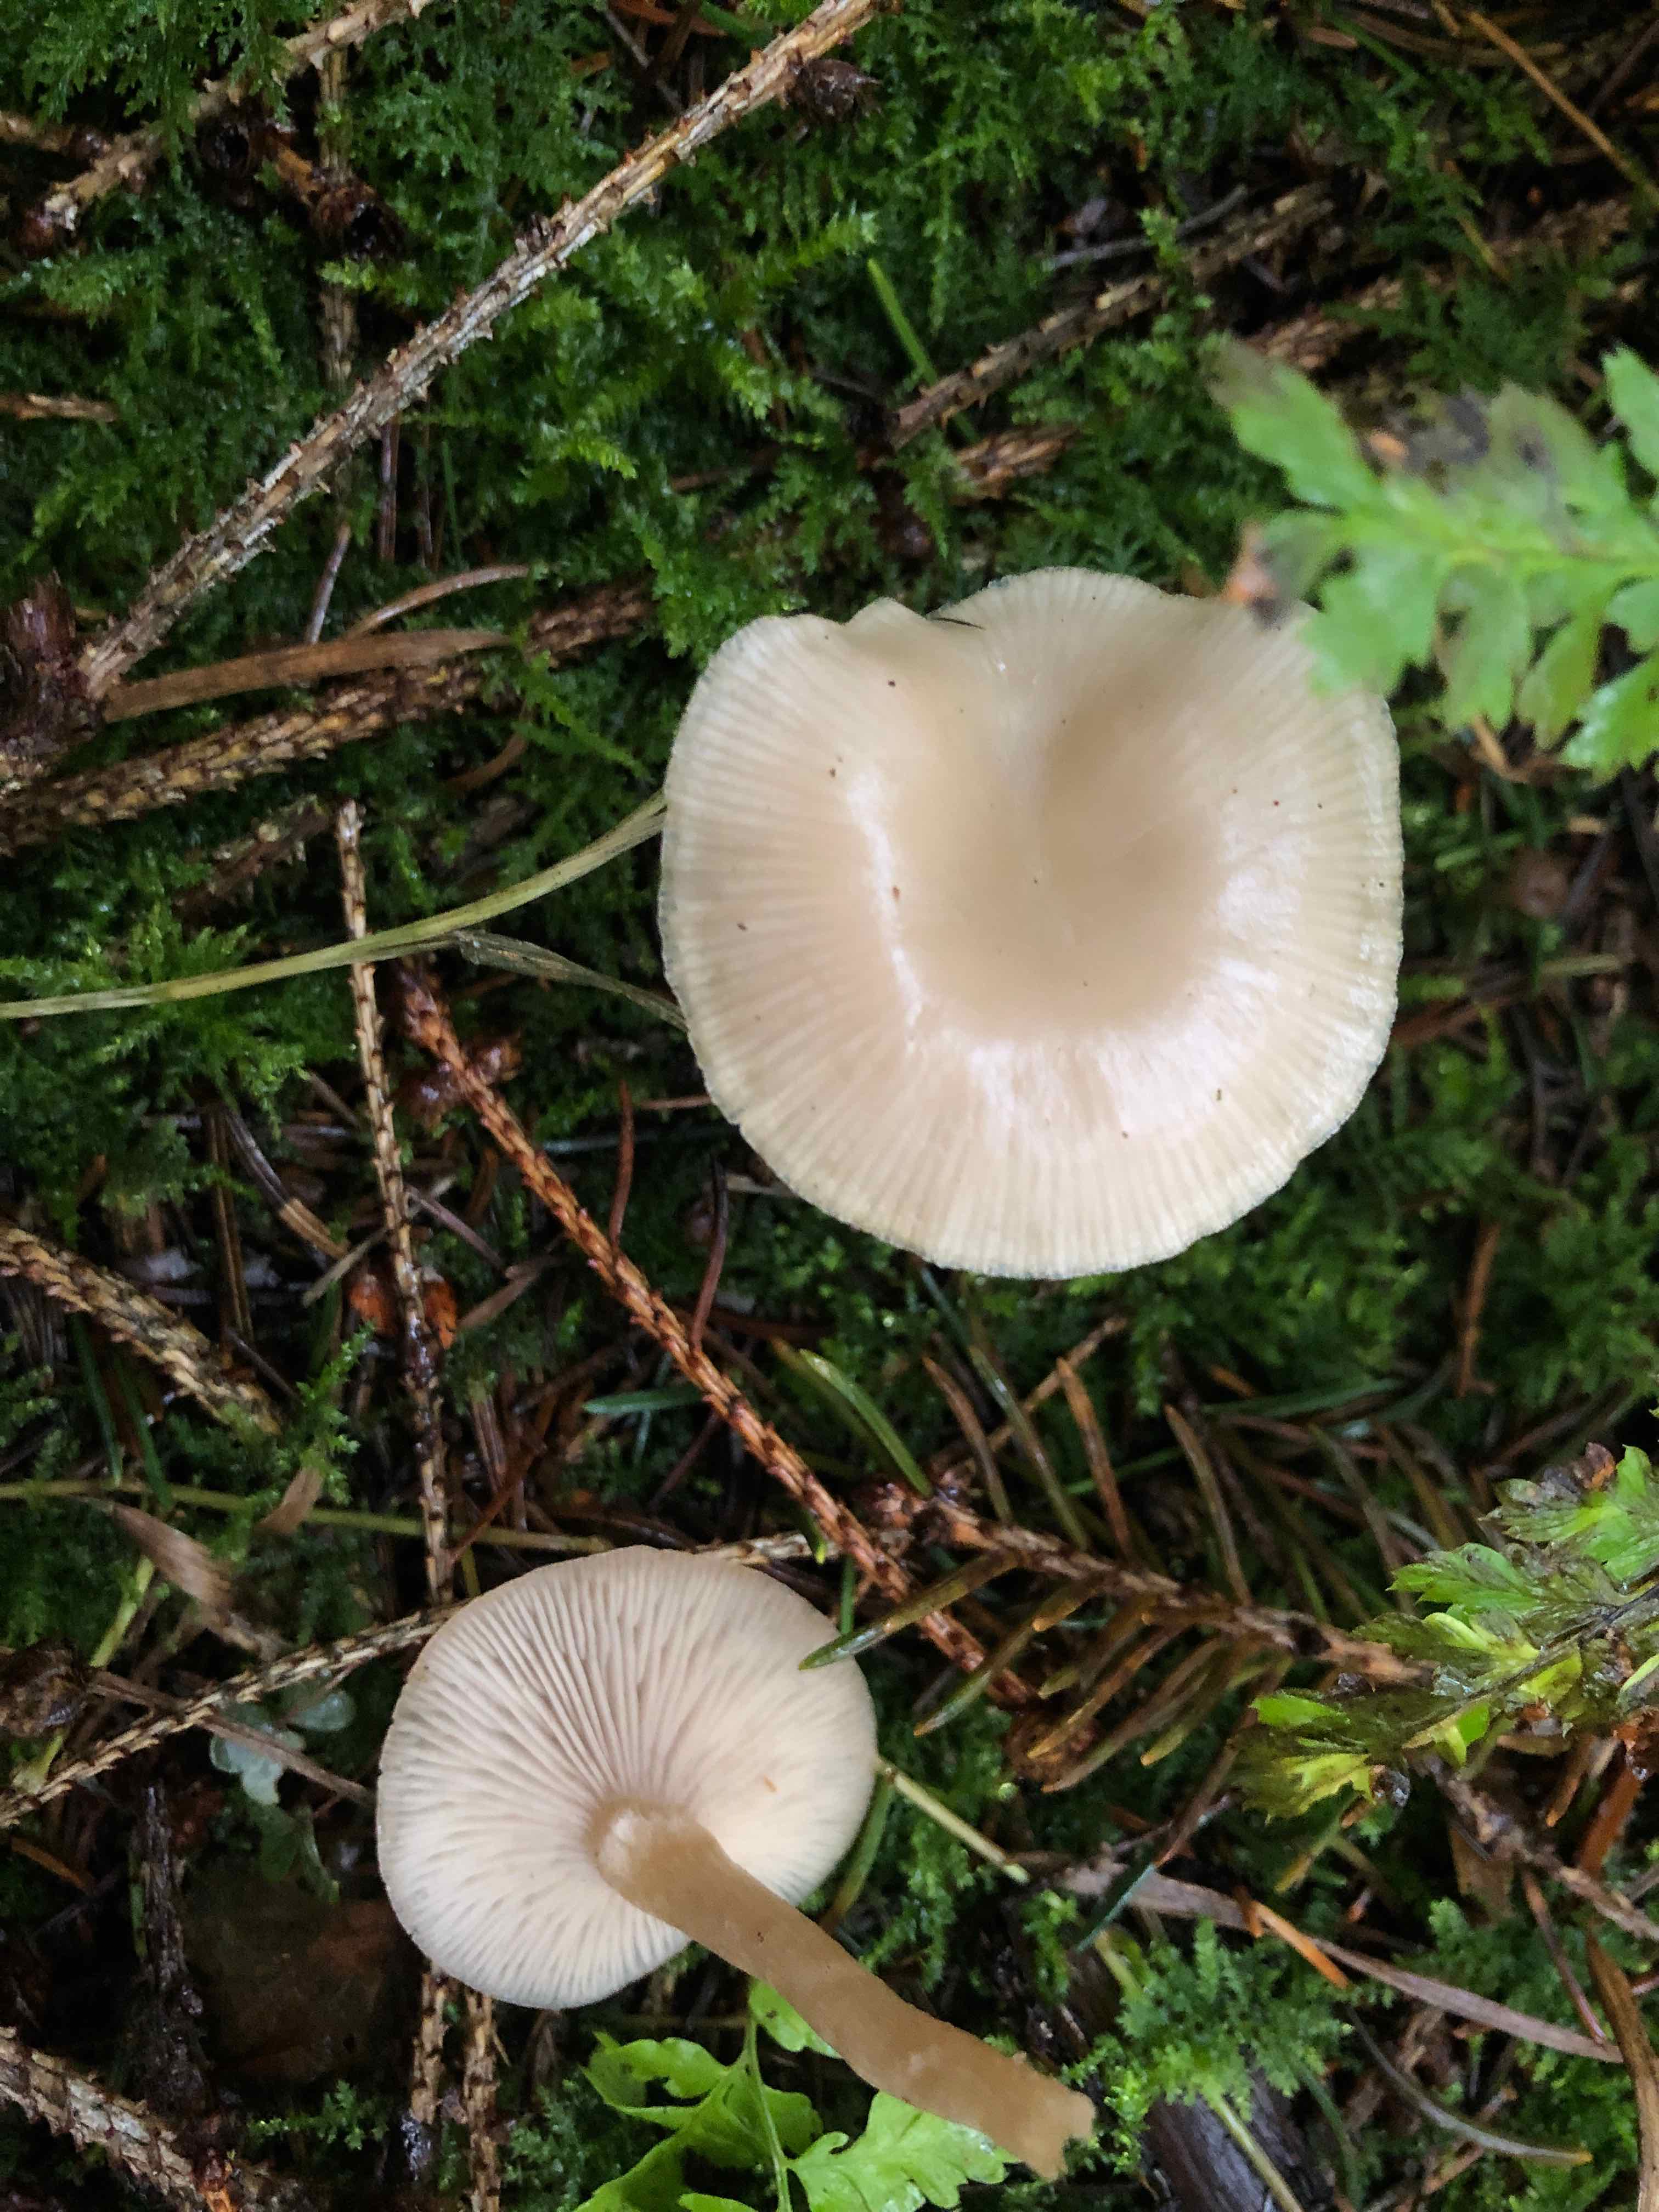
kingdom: Fungi
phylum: Basidiomycota
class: Agaricomycetes
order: Agaricales
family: Tricholomataceae
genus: Clitocybe
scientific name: Clitocybe fragrans
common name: vellugtende tragthat
